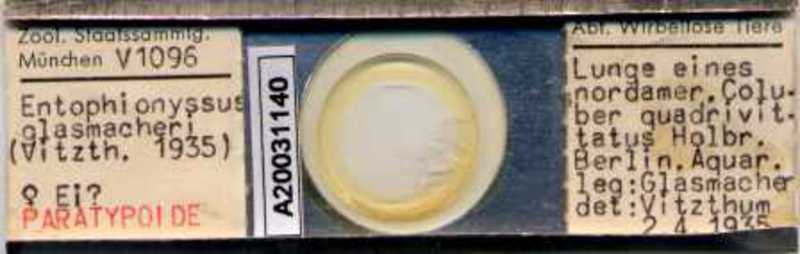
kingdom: Animalia
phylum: Arthropoda
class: Arachnida
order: Mesostigmata
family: Entonyssidae
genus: Entophionyssus
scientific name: Entophionyssus glasmacheri
